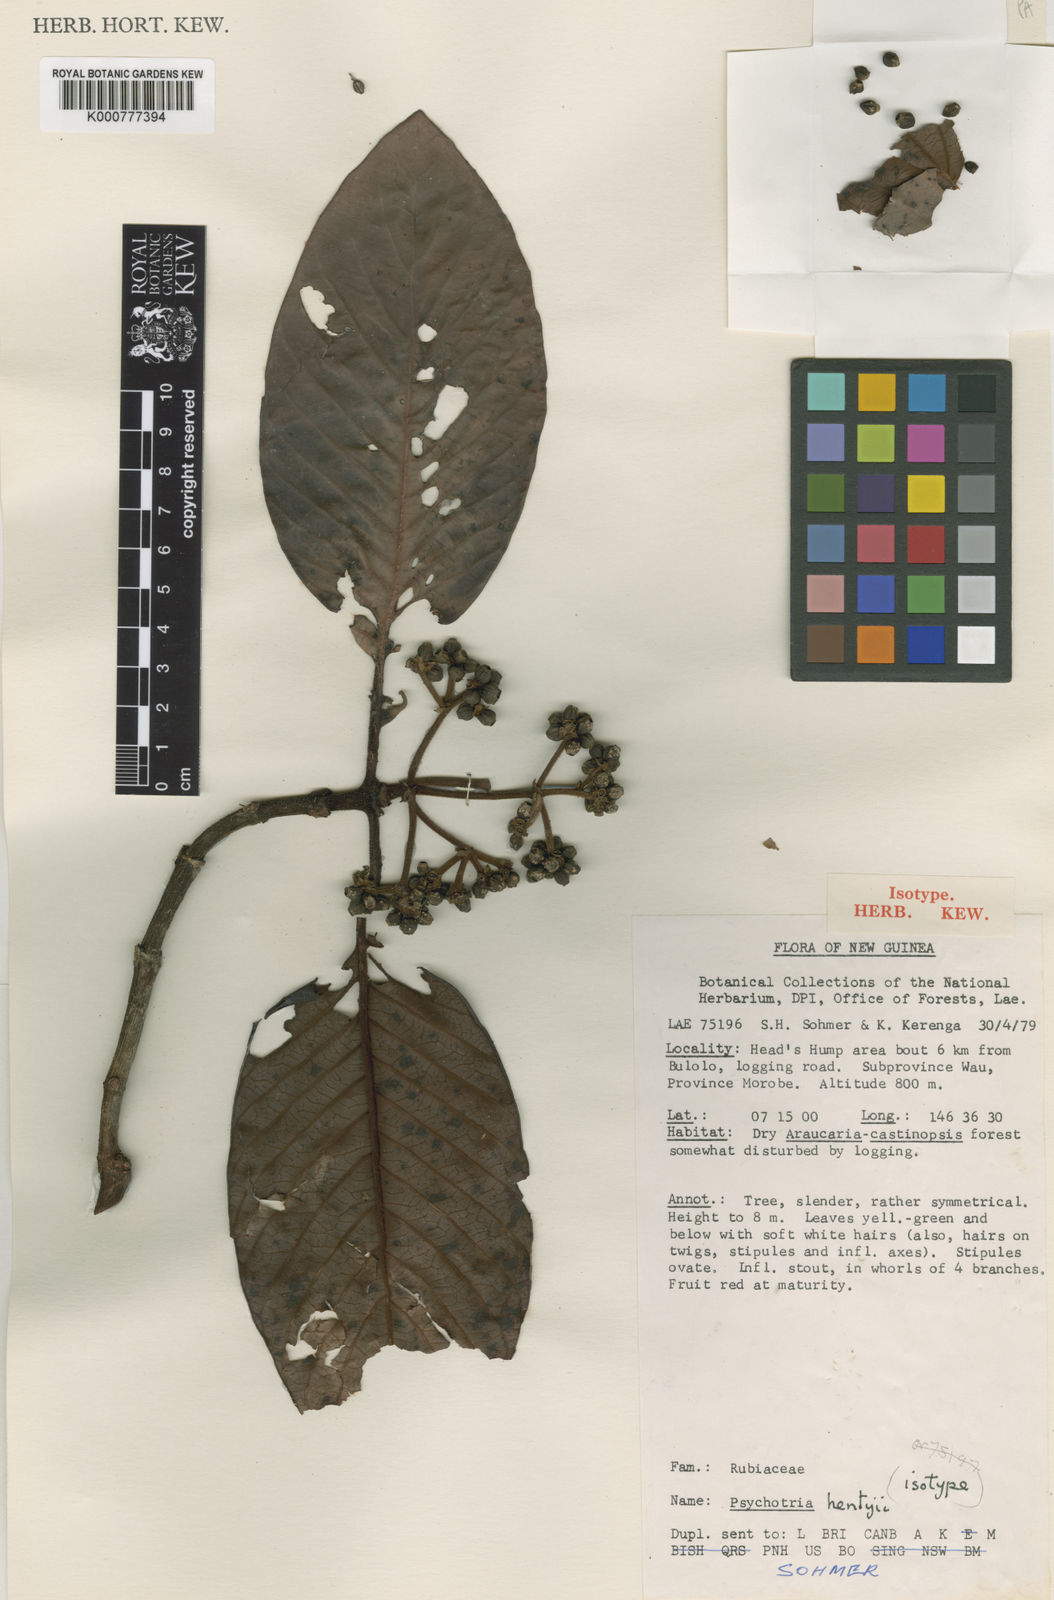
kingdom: Plantae
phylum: Tracheophyta
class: Magnoliopsida
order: Gentianales
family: Rubiaceae
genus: Psychotria
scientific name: Psychotria hentyi
